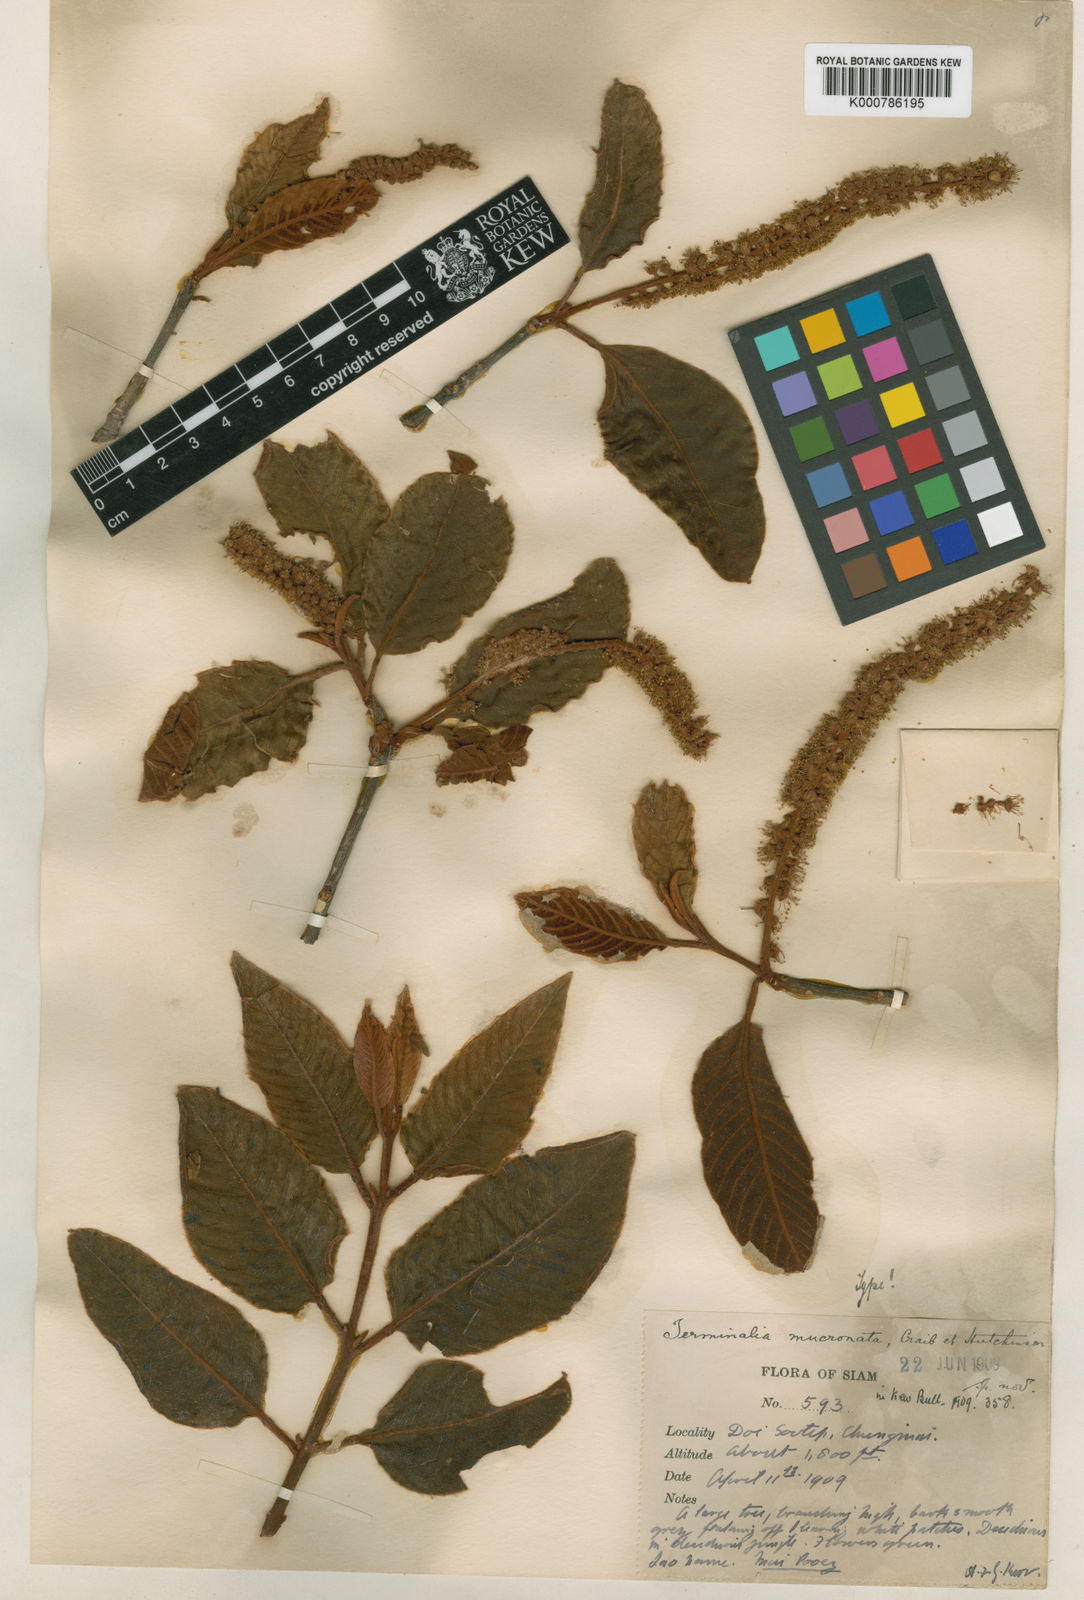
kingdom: Plantae
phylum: Tracheophyta
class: Magnoliopsida
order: Myrtales
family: Combretaceae
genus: Terminalia
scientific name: Terminalia corticosa
